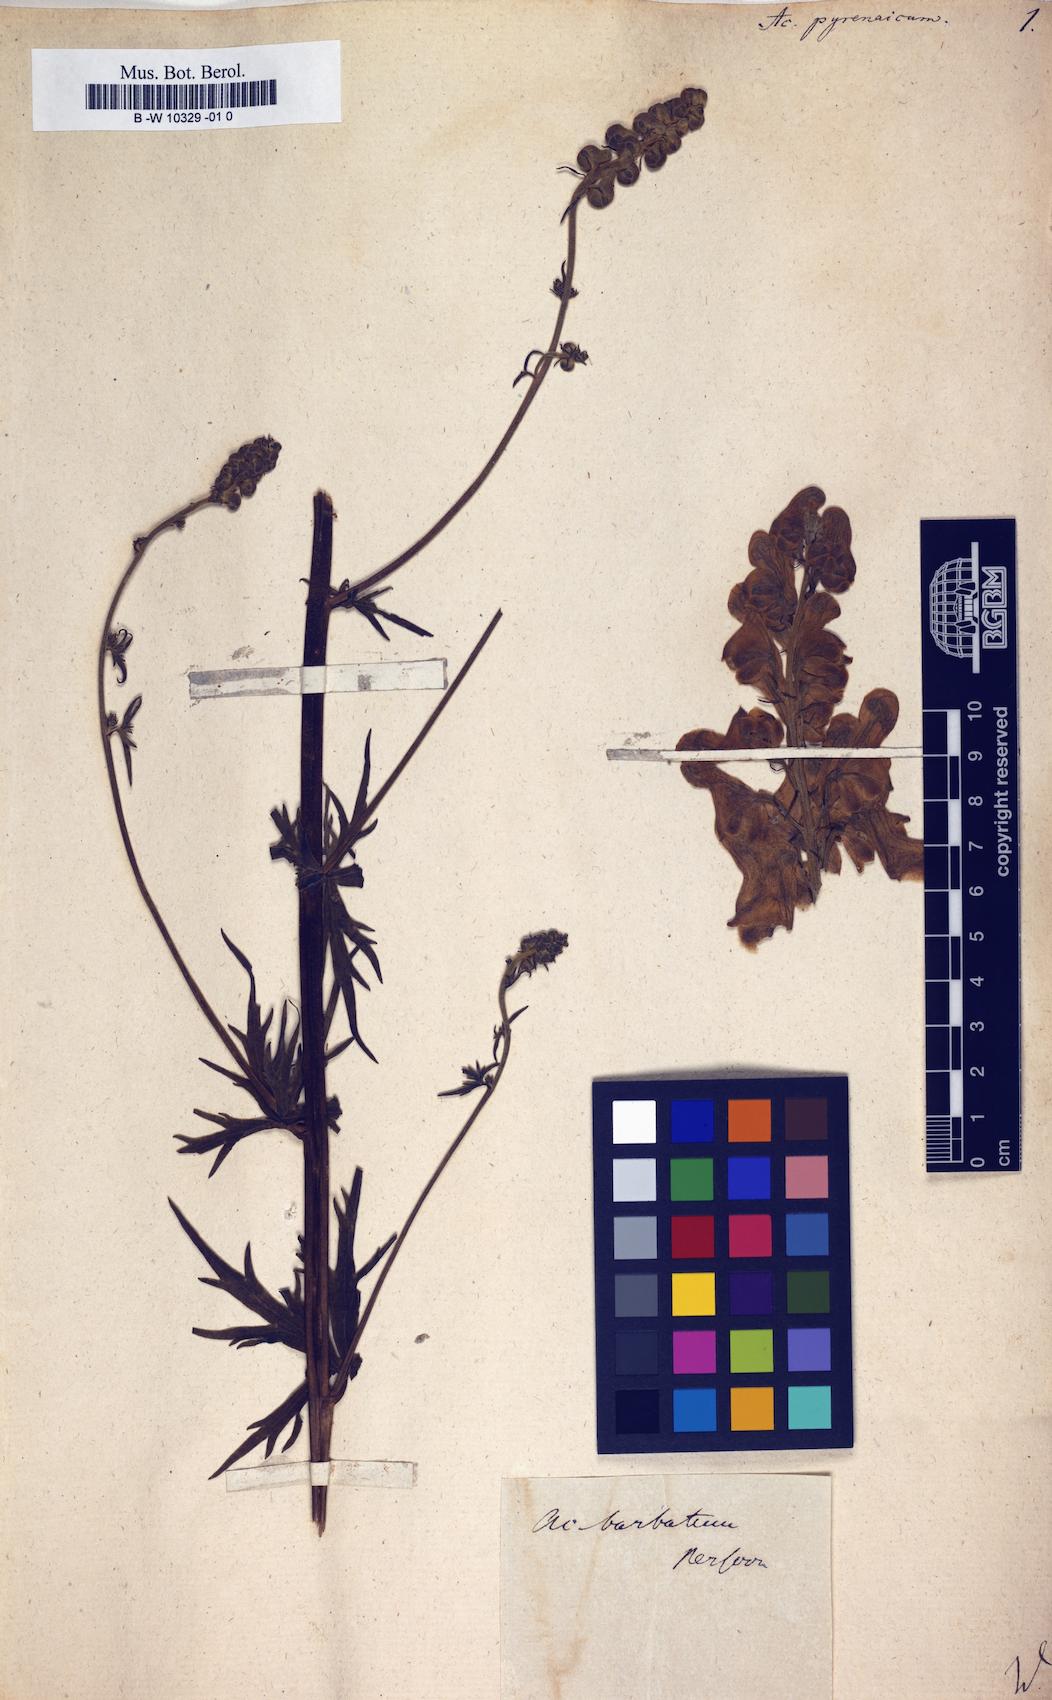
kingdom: Plantae
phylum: Tracheophyta
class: Magnoliopsida
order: Ranunculales
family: Ranunculaceae
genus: Aconitum
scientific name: Aconitum lycoctonum
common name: Wolf's-bane
